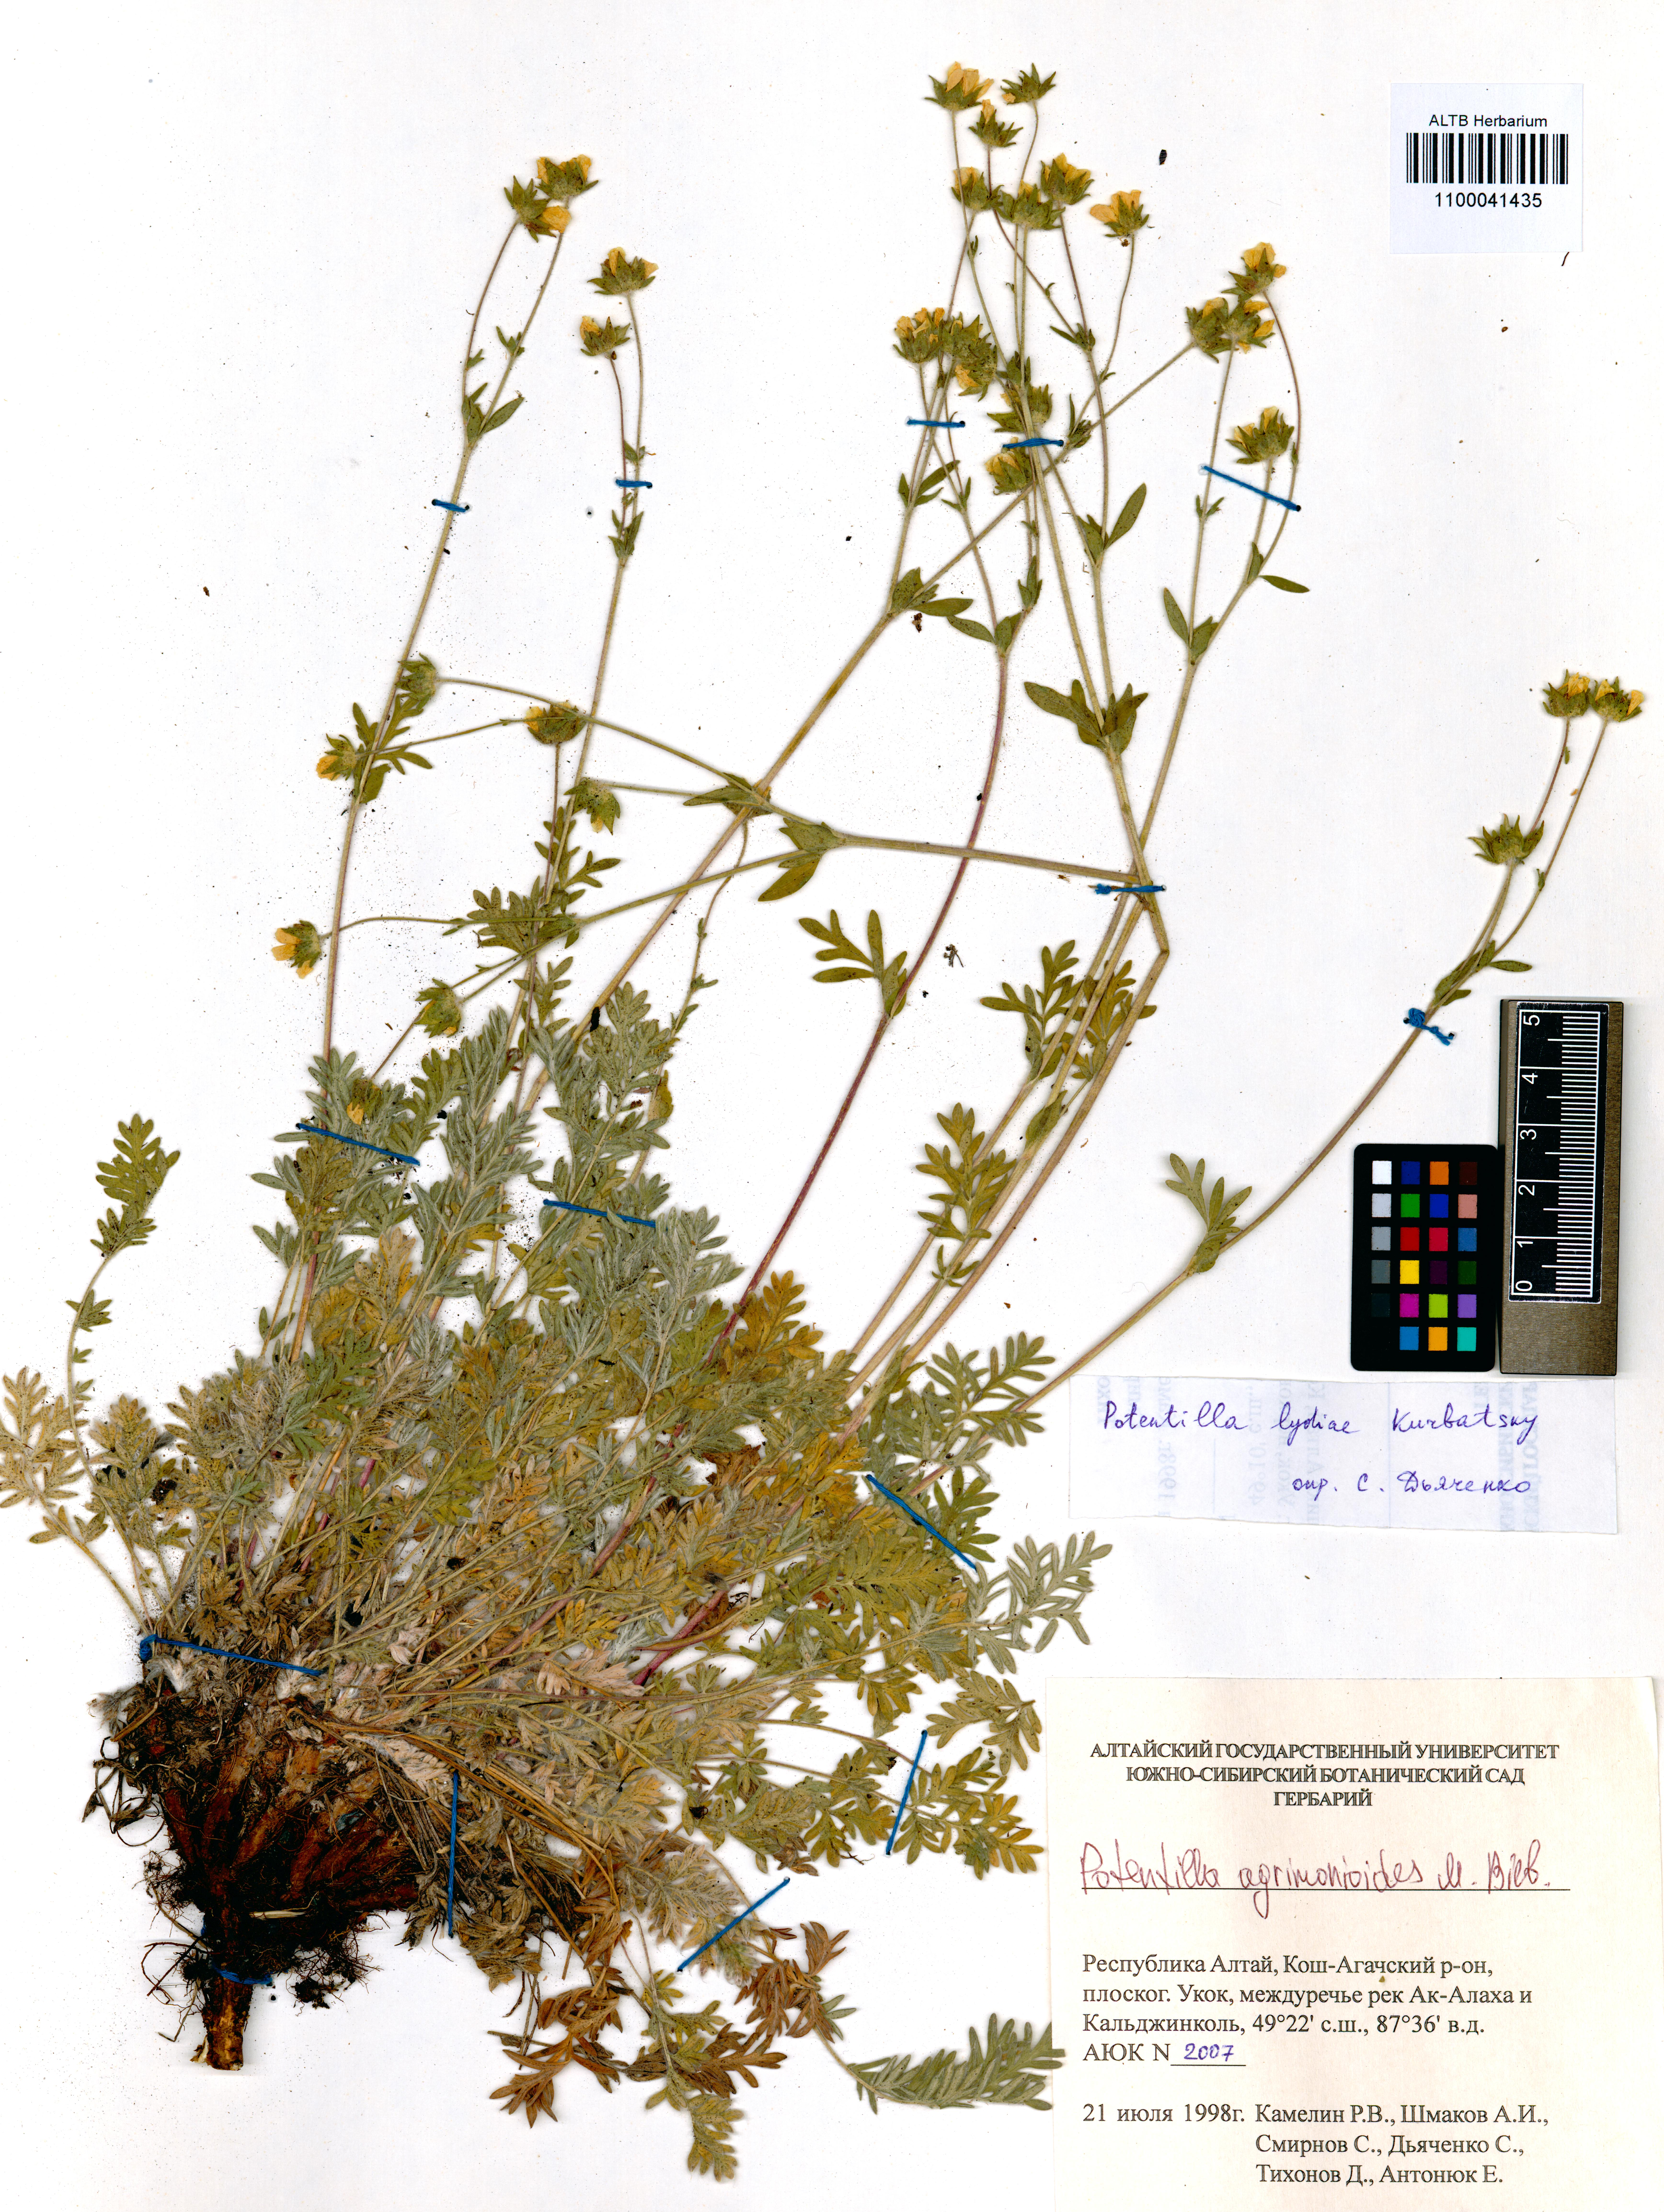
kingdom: Plantae
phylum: Tracheophyta
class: Magnoliopsida
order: Rosales
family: Rosaceae
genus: Potentilla
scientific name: Potentilla agrimonioides
